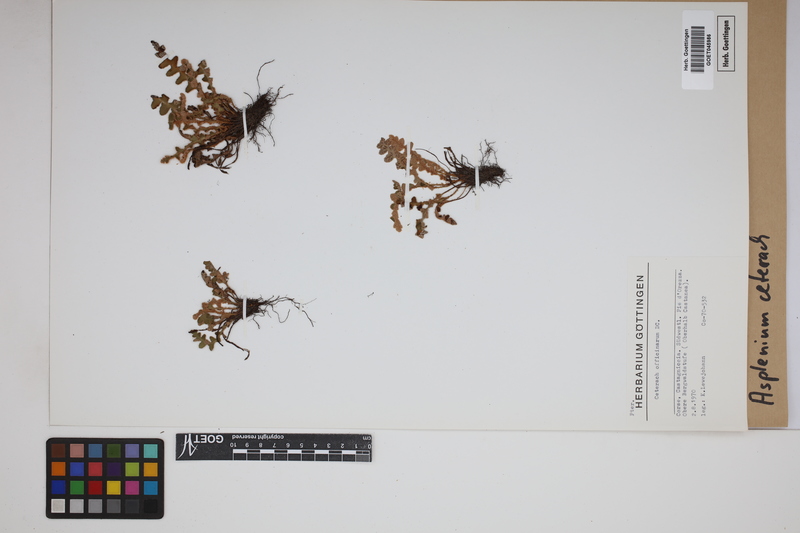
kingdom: Plantae
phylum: Tracheophyta
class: Polypodiopsida
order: Polypodiales
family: Aspleniaceae
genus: Asplenium
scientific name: Asplenium ceterach
